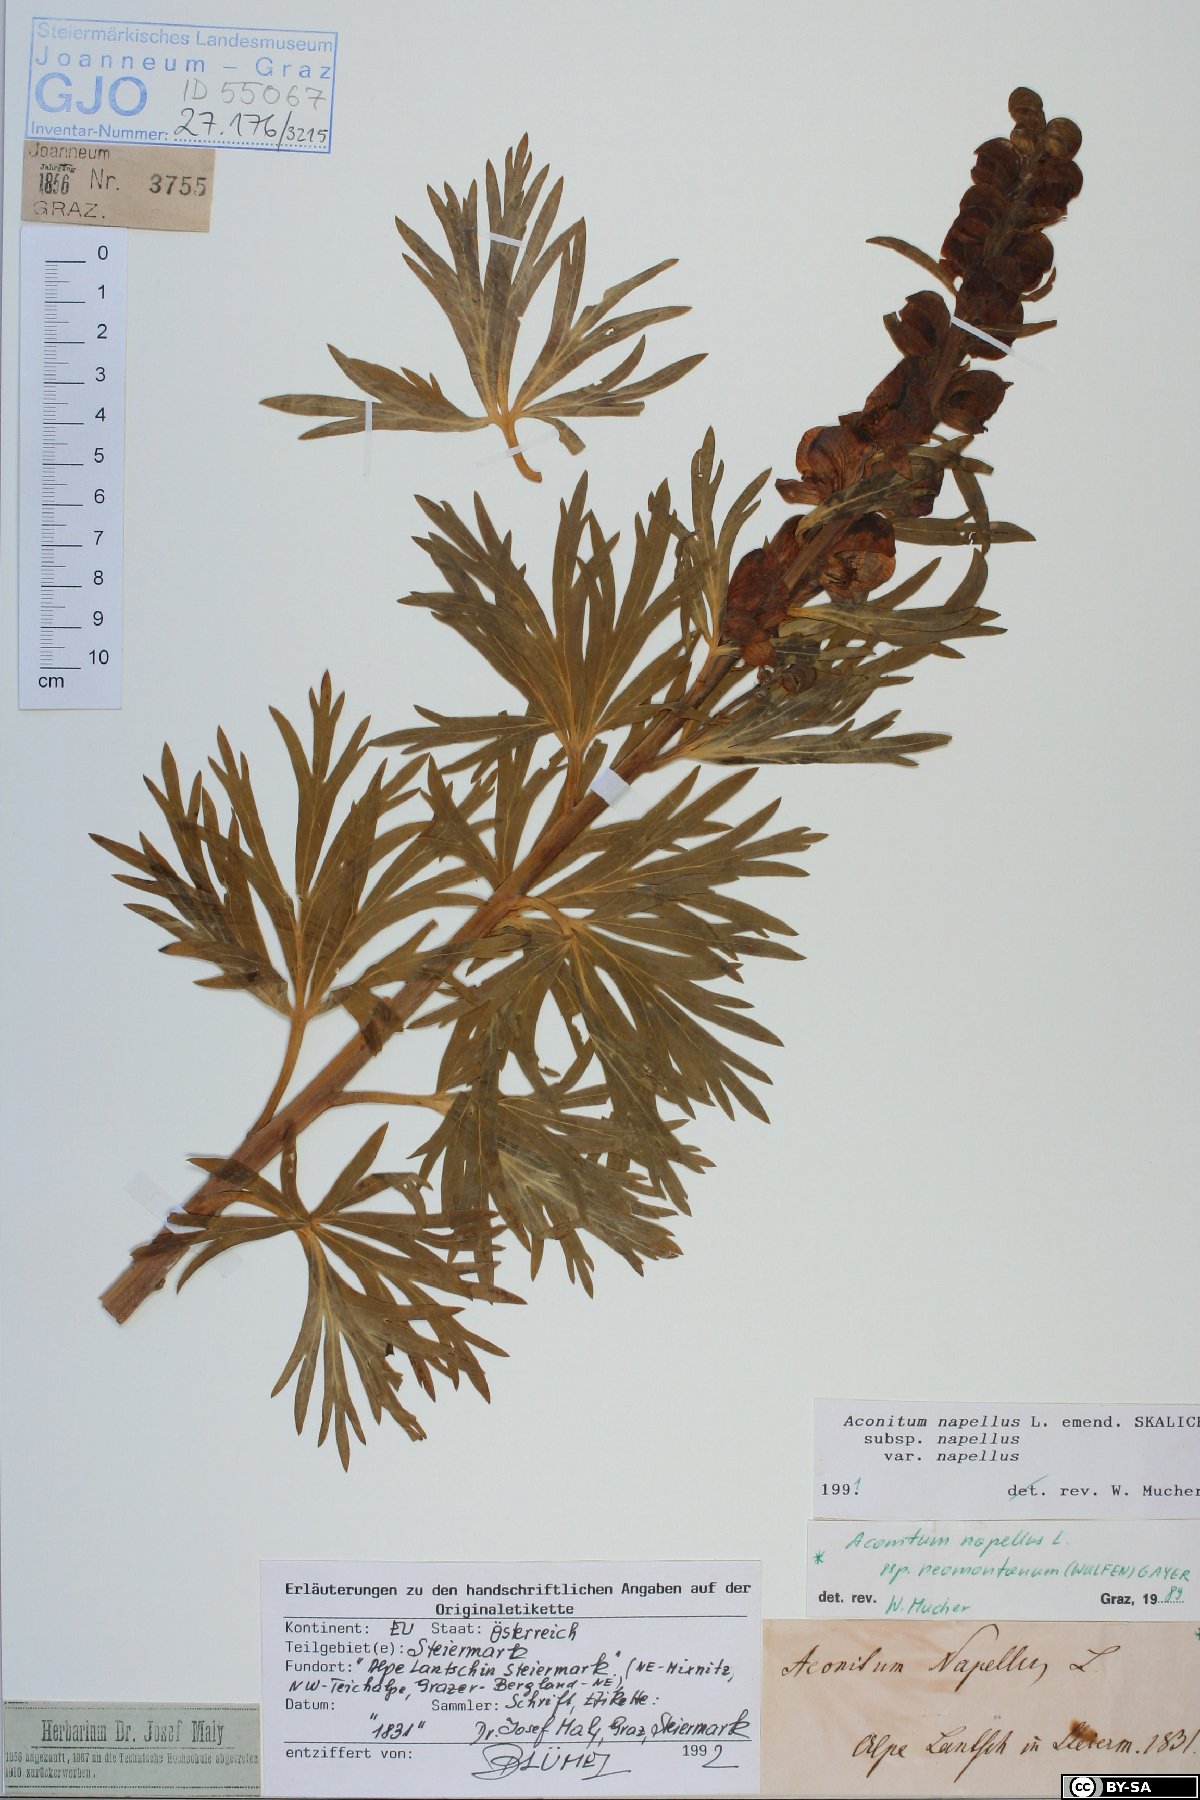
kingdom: Plantae
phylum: Tracheophyta
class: Magnoliopsida
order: Ranunculales
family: Ranunculaceae
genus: Aconitum
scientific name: Aconitum napellus
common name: Garden monkshood
